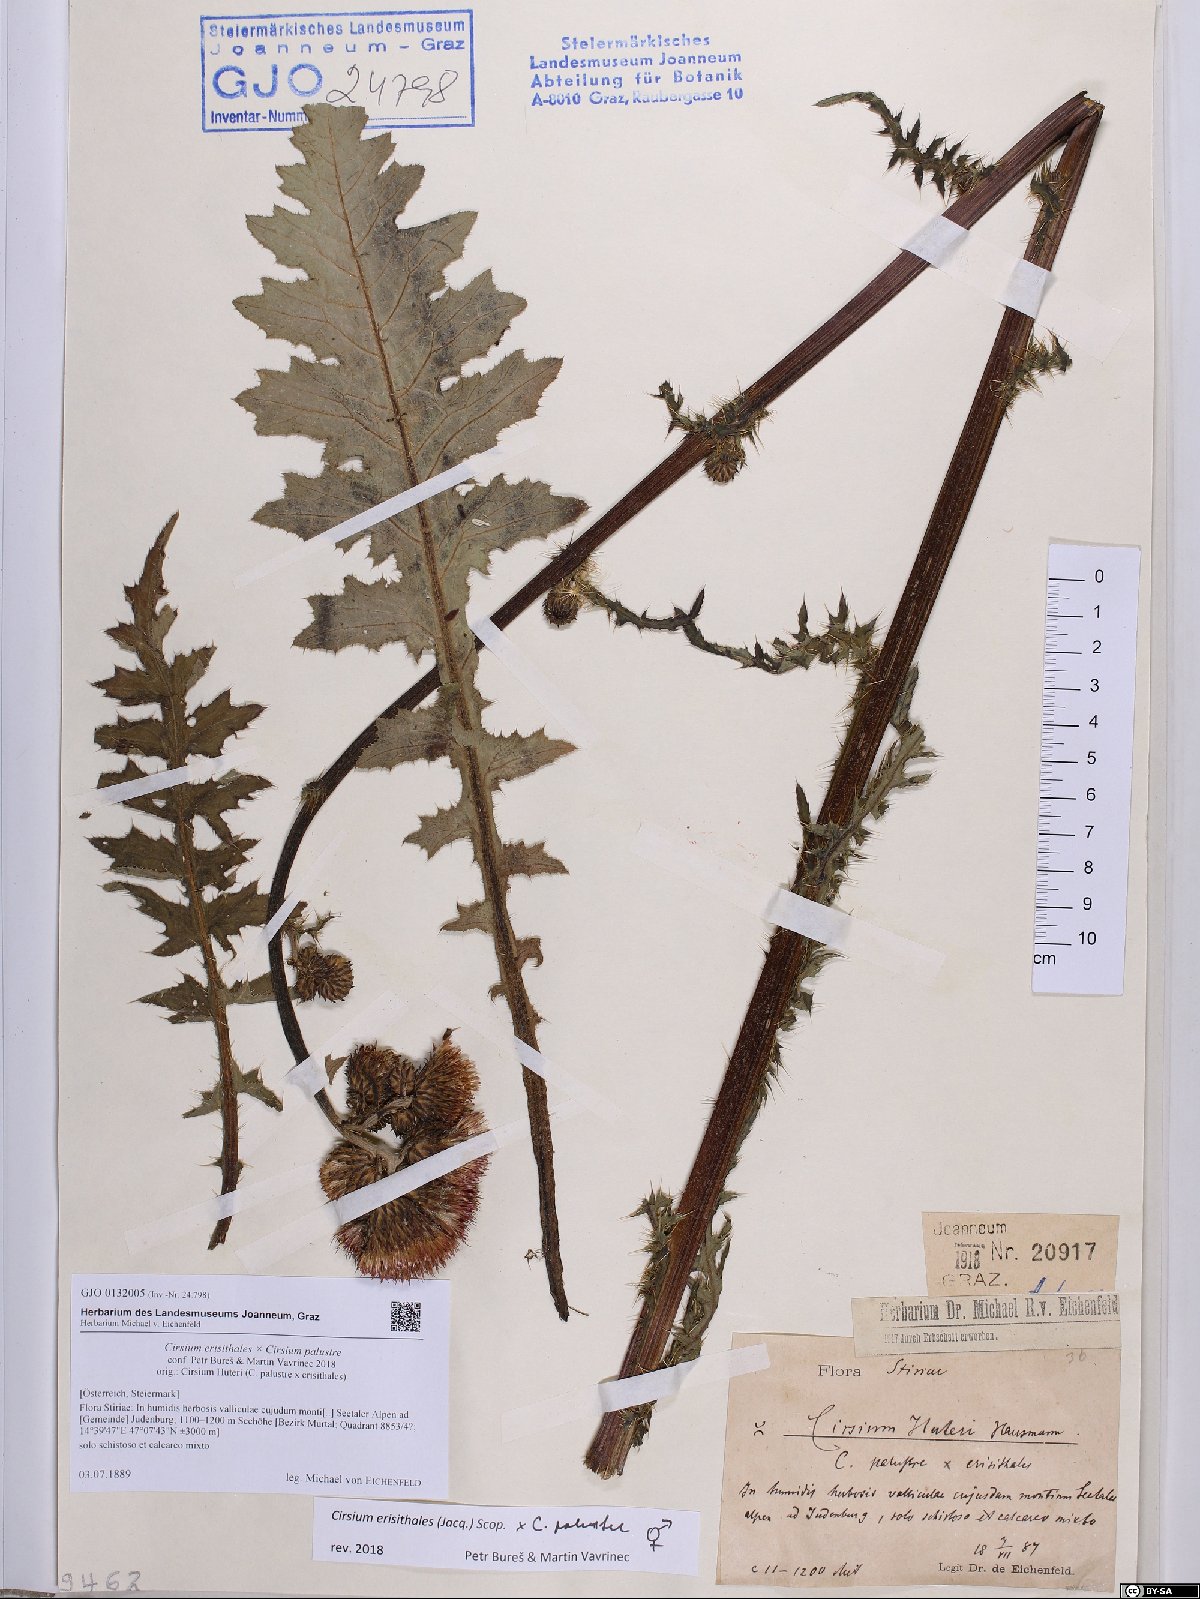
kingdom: Plantae
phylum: Tracheophyta
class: Magnoliopsida
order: Asterales
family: Asteraceae
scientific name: Asteraceae
